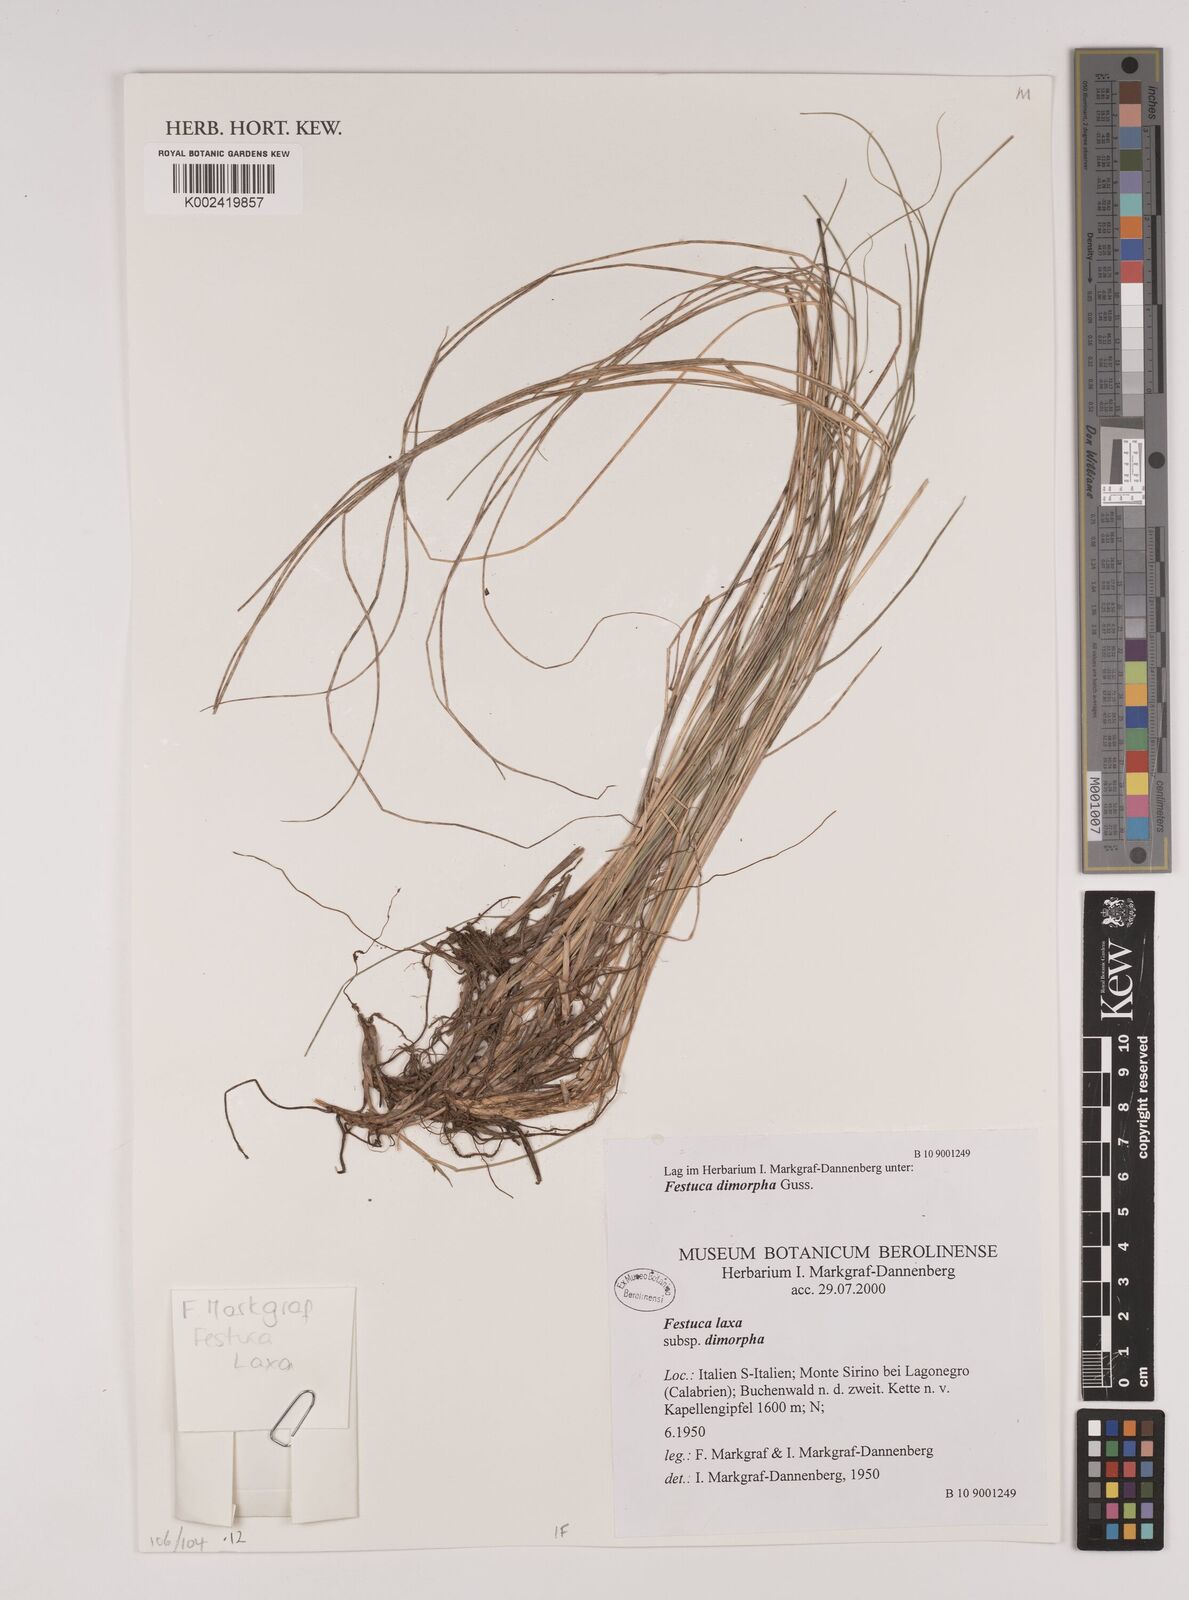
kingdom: Plantae
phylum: Tracheophyta
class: Liliopsida
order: Poales
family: Poaceae
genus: Festuca
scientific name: Festuca dimorpha
